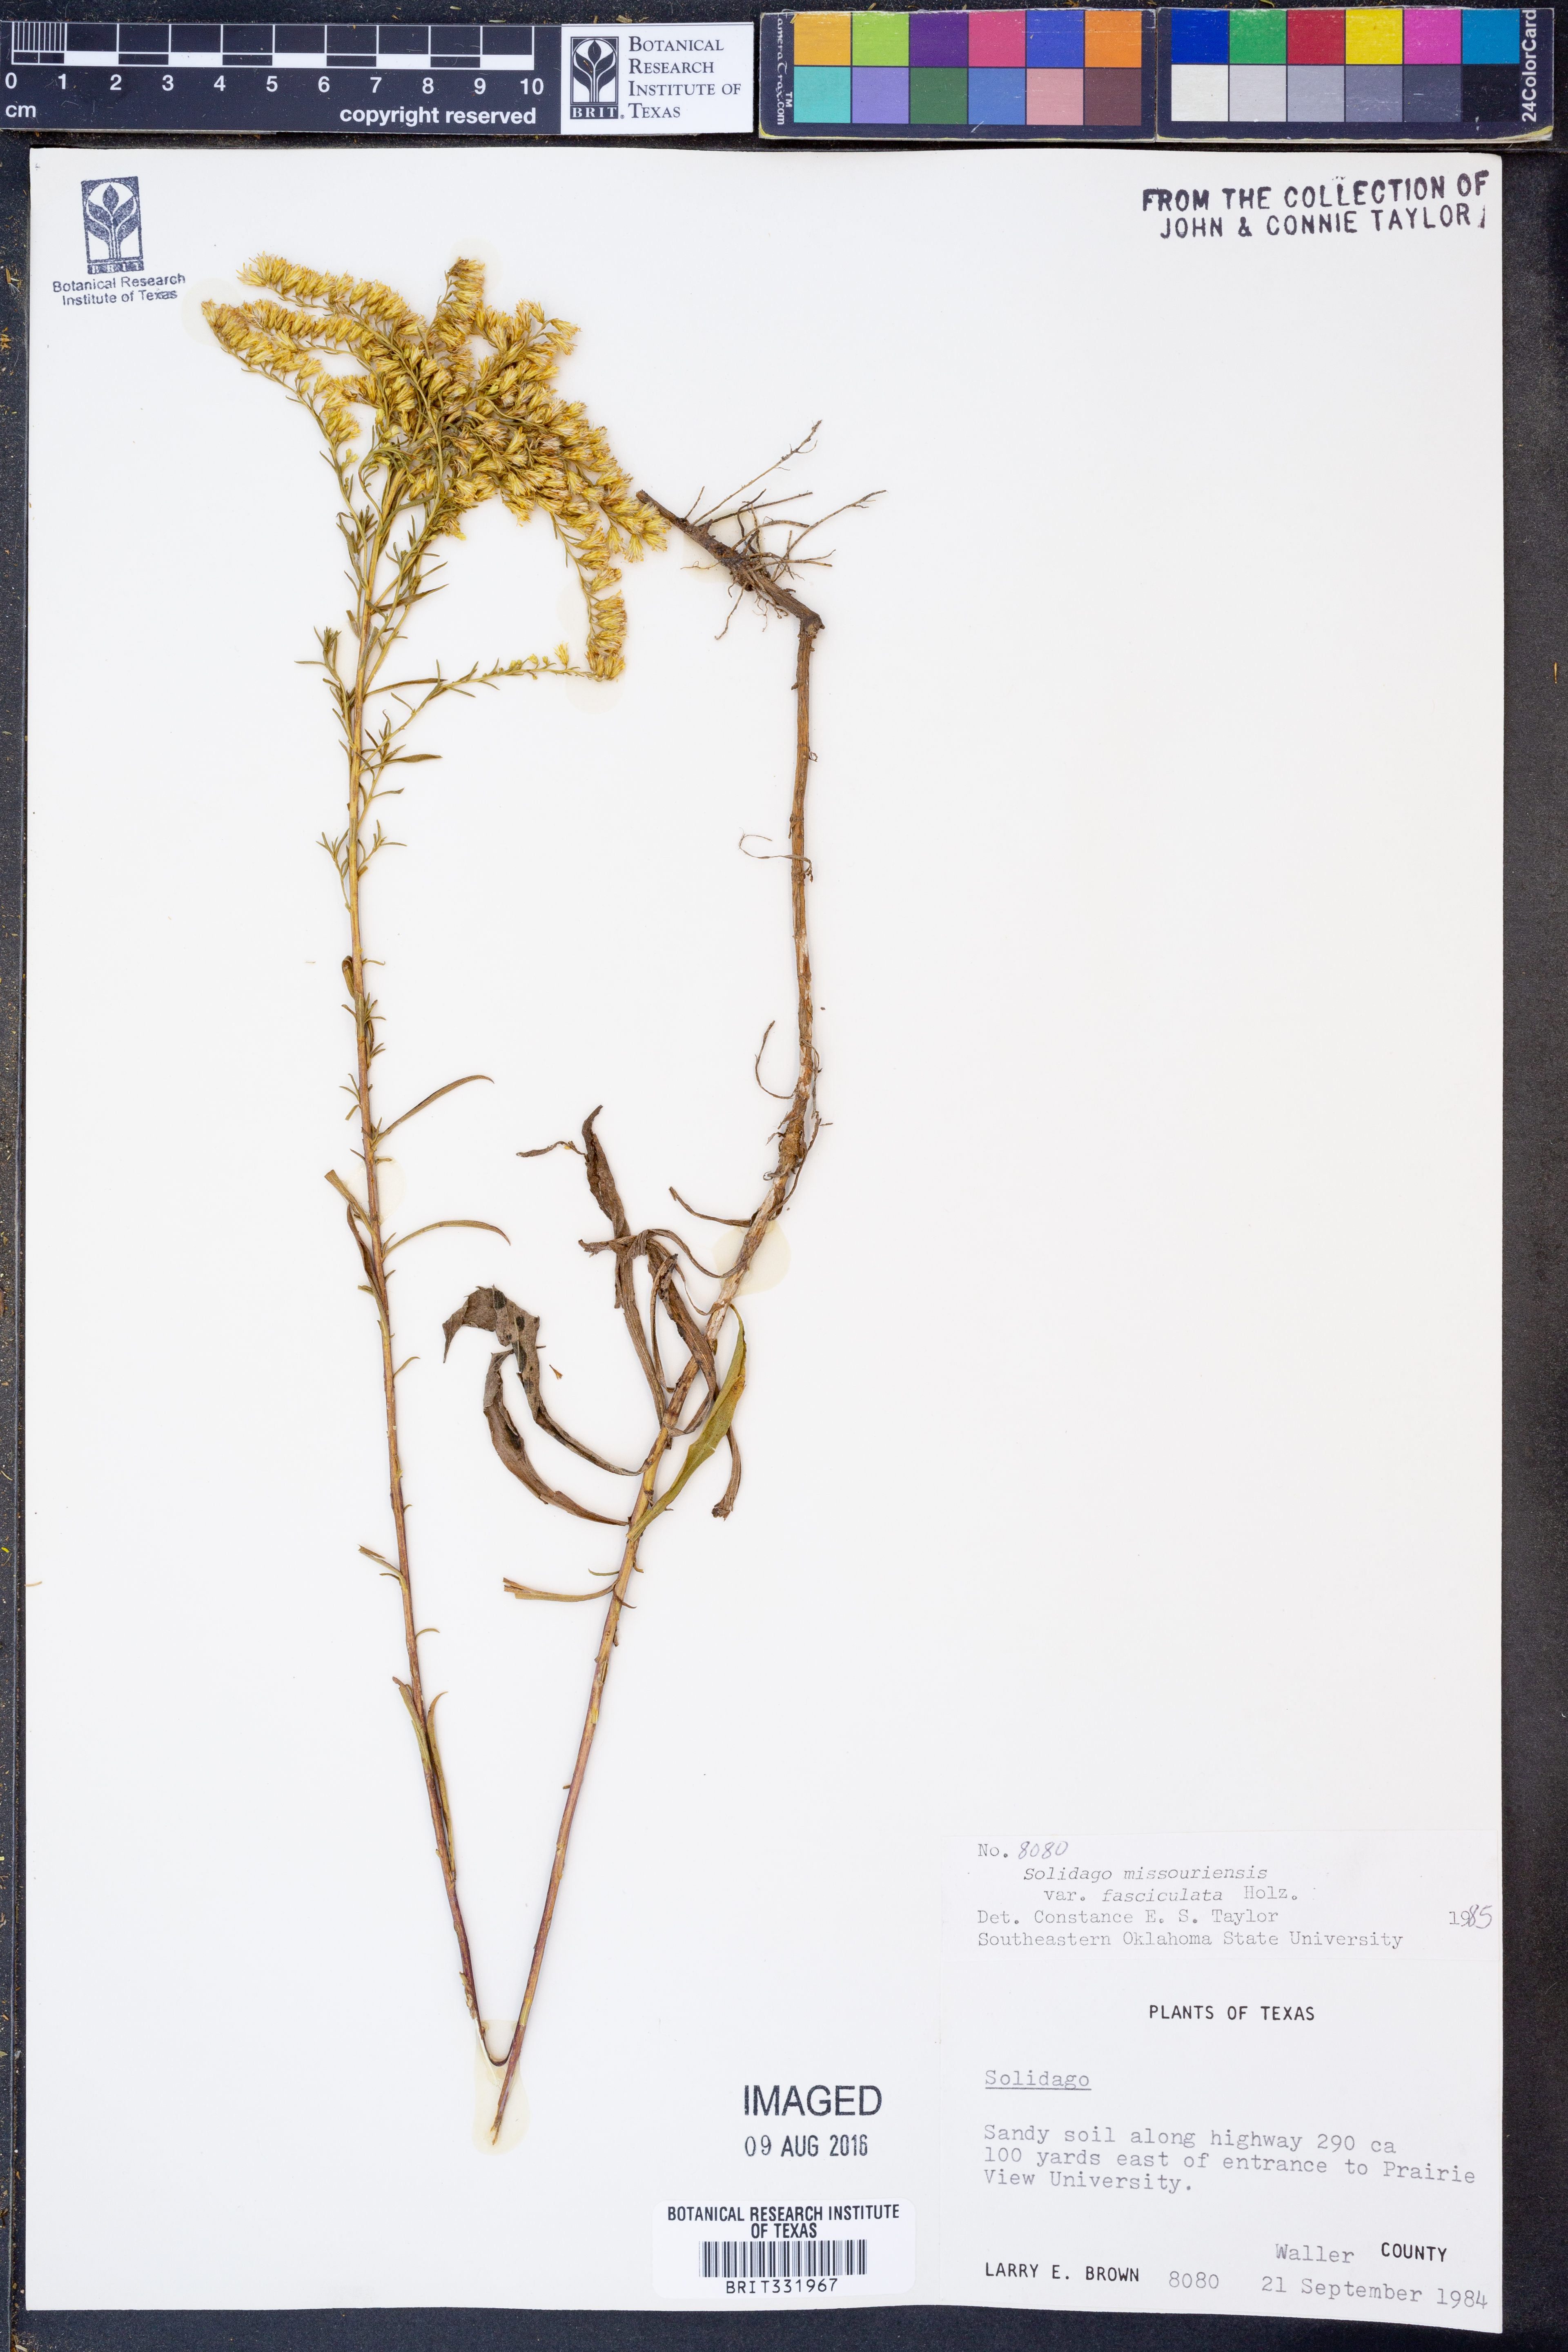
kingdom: Plantae
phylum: Tracheophyta
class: Magnoliopsida
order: Asterales
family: Asteraceae
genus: Solidago
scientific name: Solidago missouriensis
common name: Prairie goldenrod
